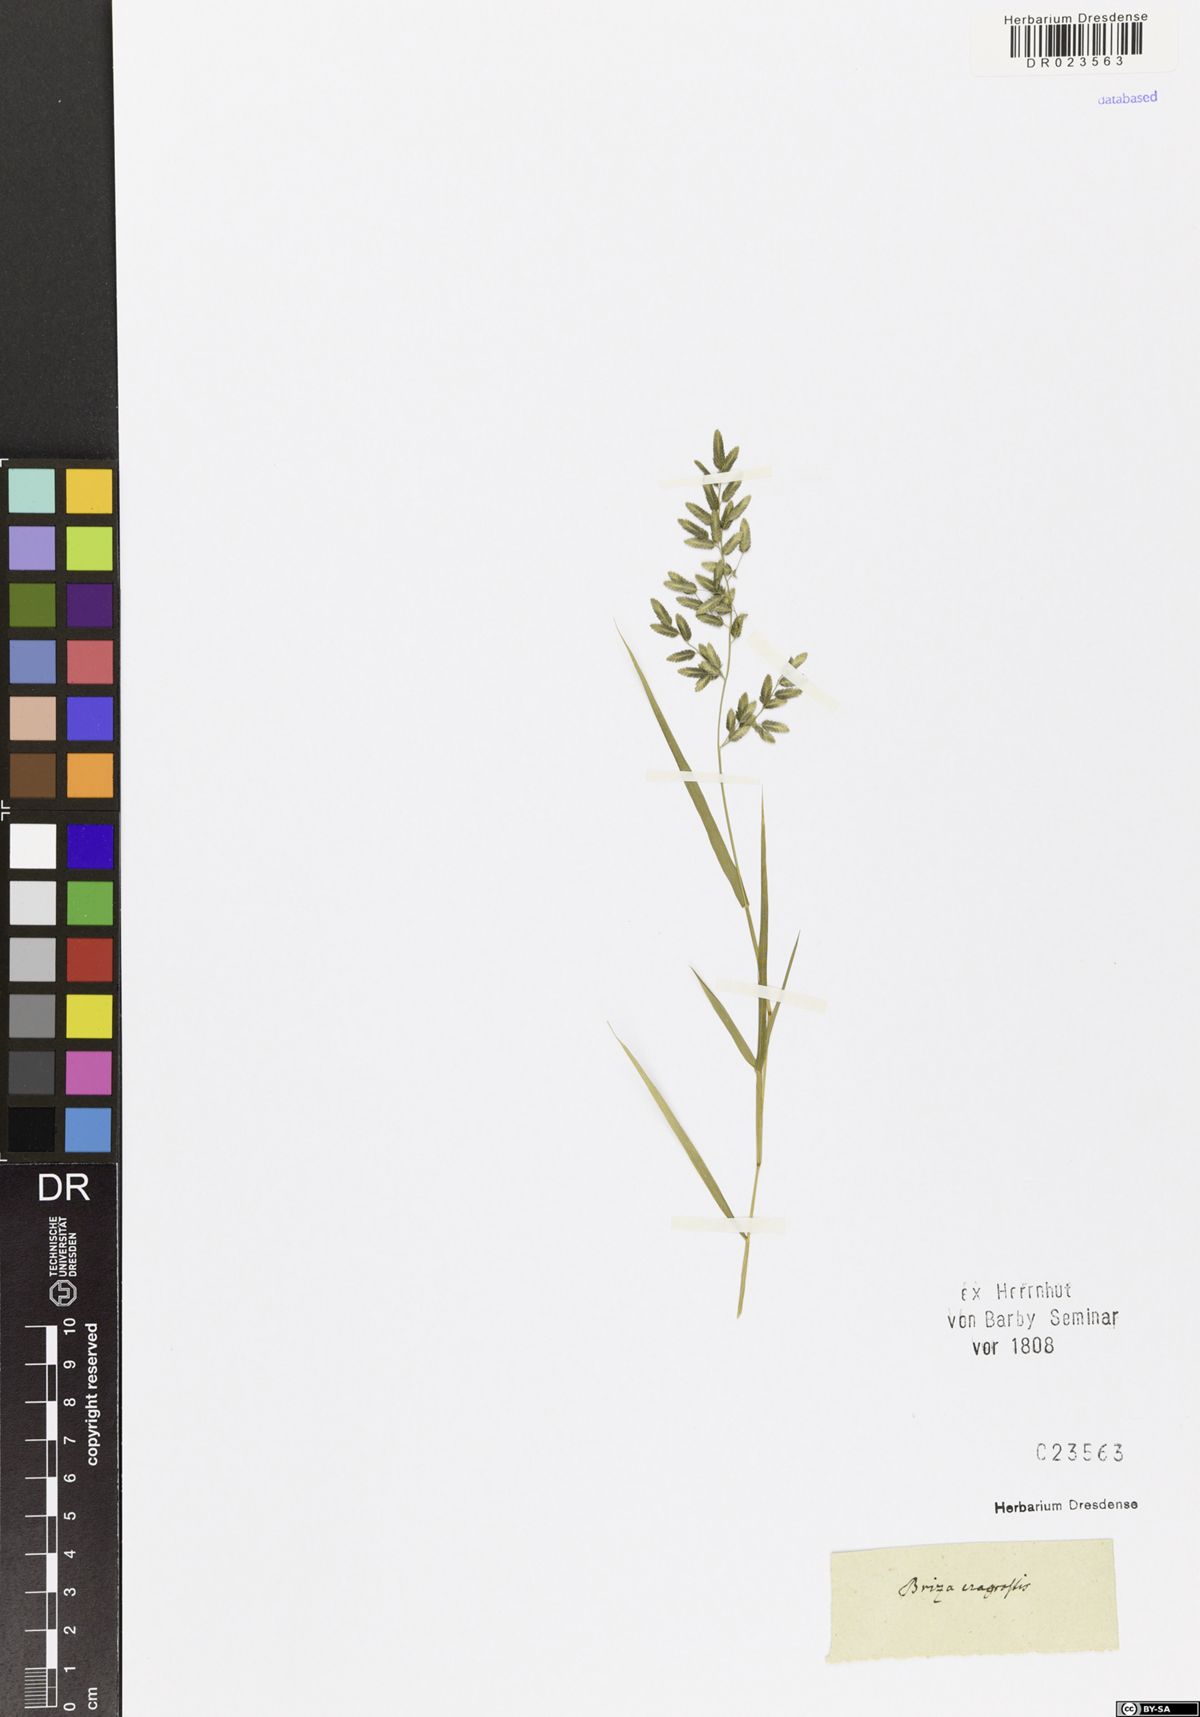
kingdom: Plantae
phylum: Tracheophyta
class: Liliopsida
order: Poales
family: Poaceae
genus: Eragrostis
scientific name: Eragrostis cilianensis
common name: Stinkgrass
